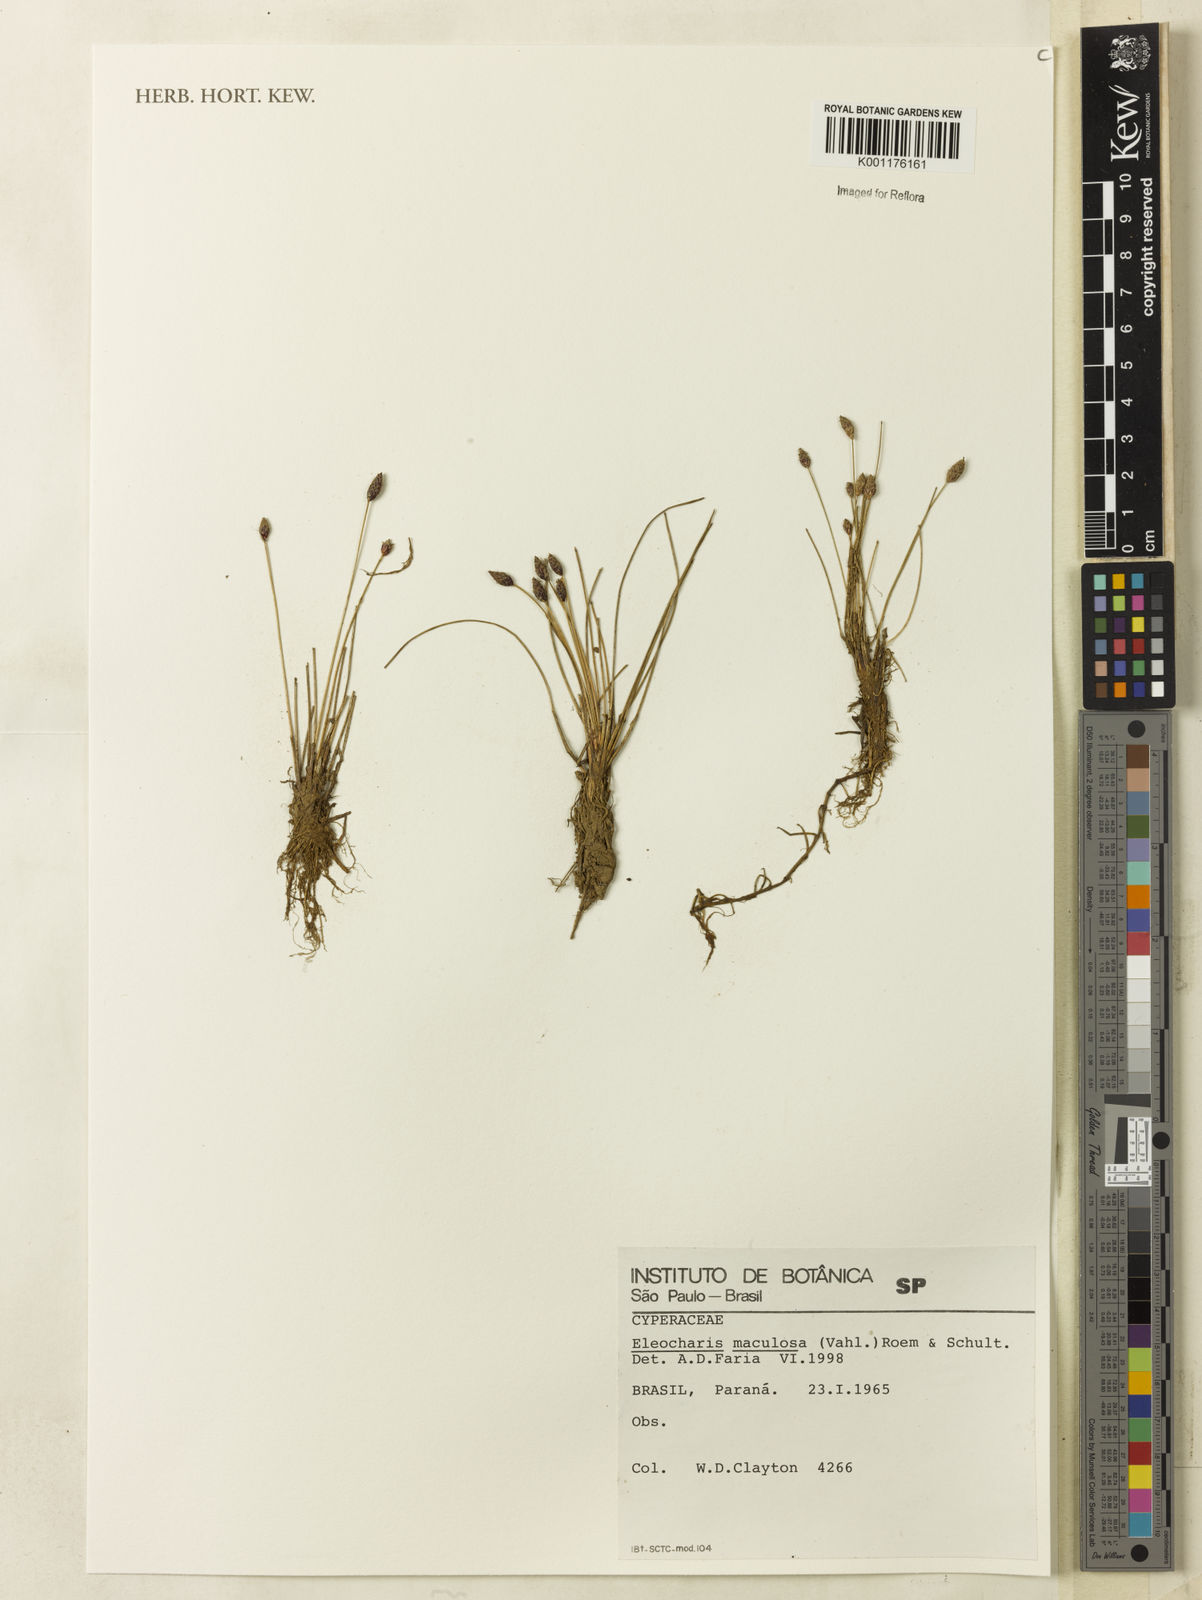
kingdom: Plantae
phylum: Tracheophyta
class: Liliopsida
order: Poales
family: Cyperaceae
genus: Eleocharis
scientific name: Eleocharis maculosa
